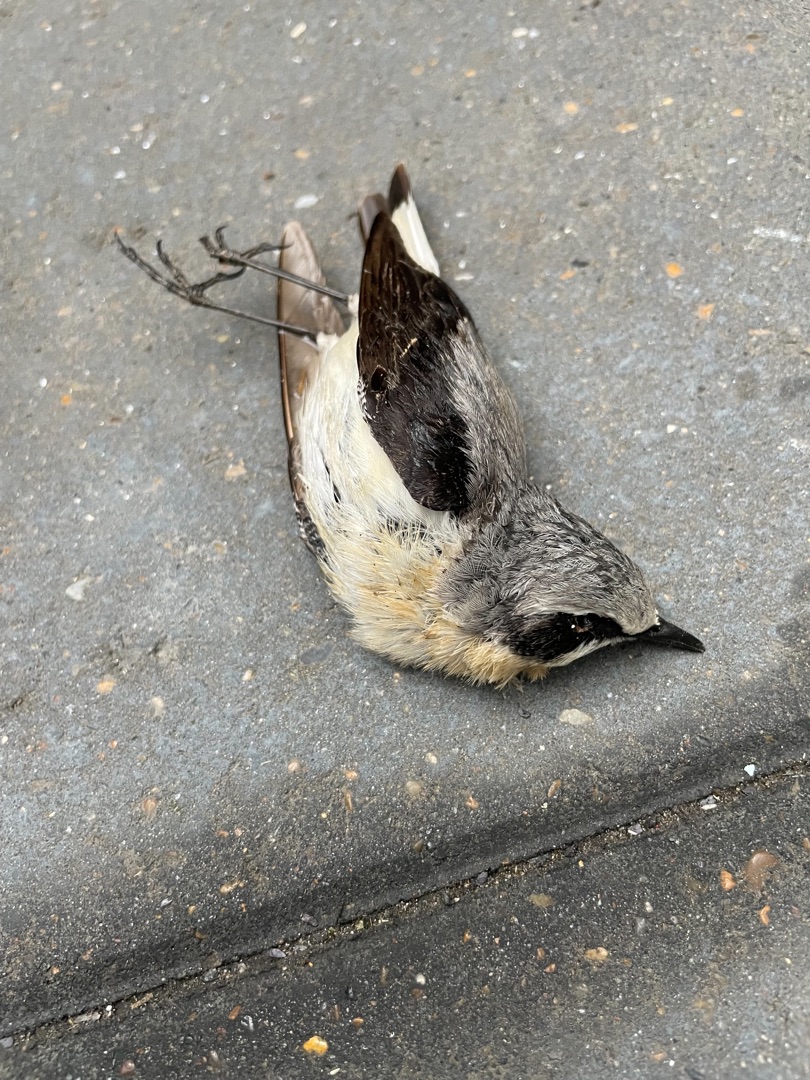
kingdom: Animalia
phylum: Chordata
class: Aves
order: Passeriformes
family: Muscicapidae
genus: Oenanthe
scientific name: Oenanthe oenanthe
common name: Stenpikker
